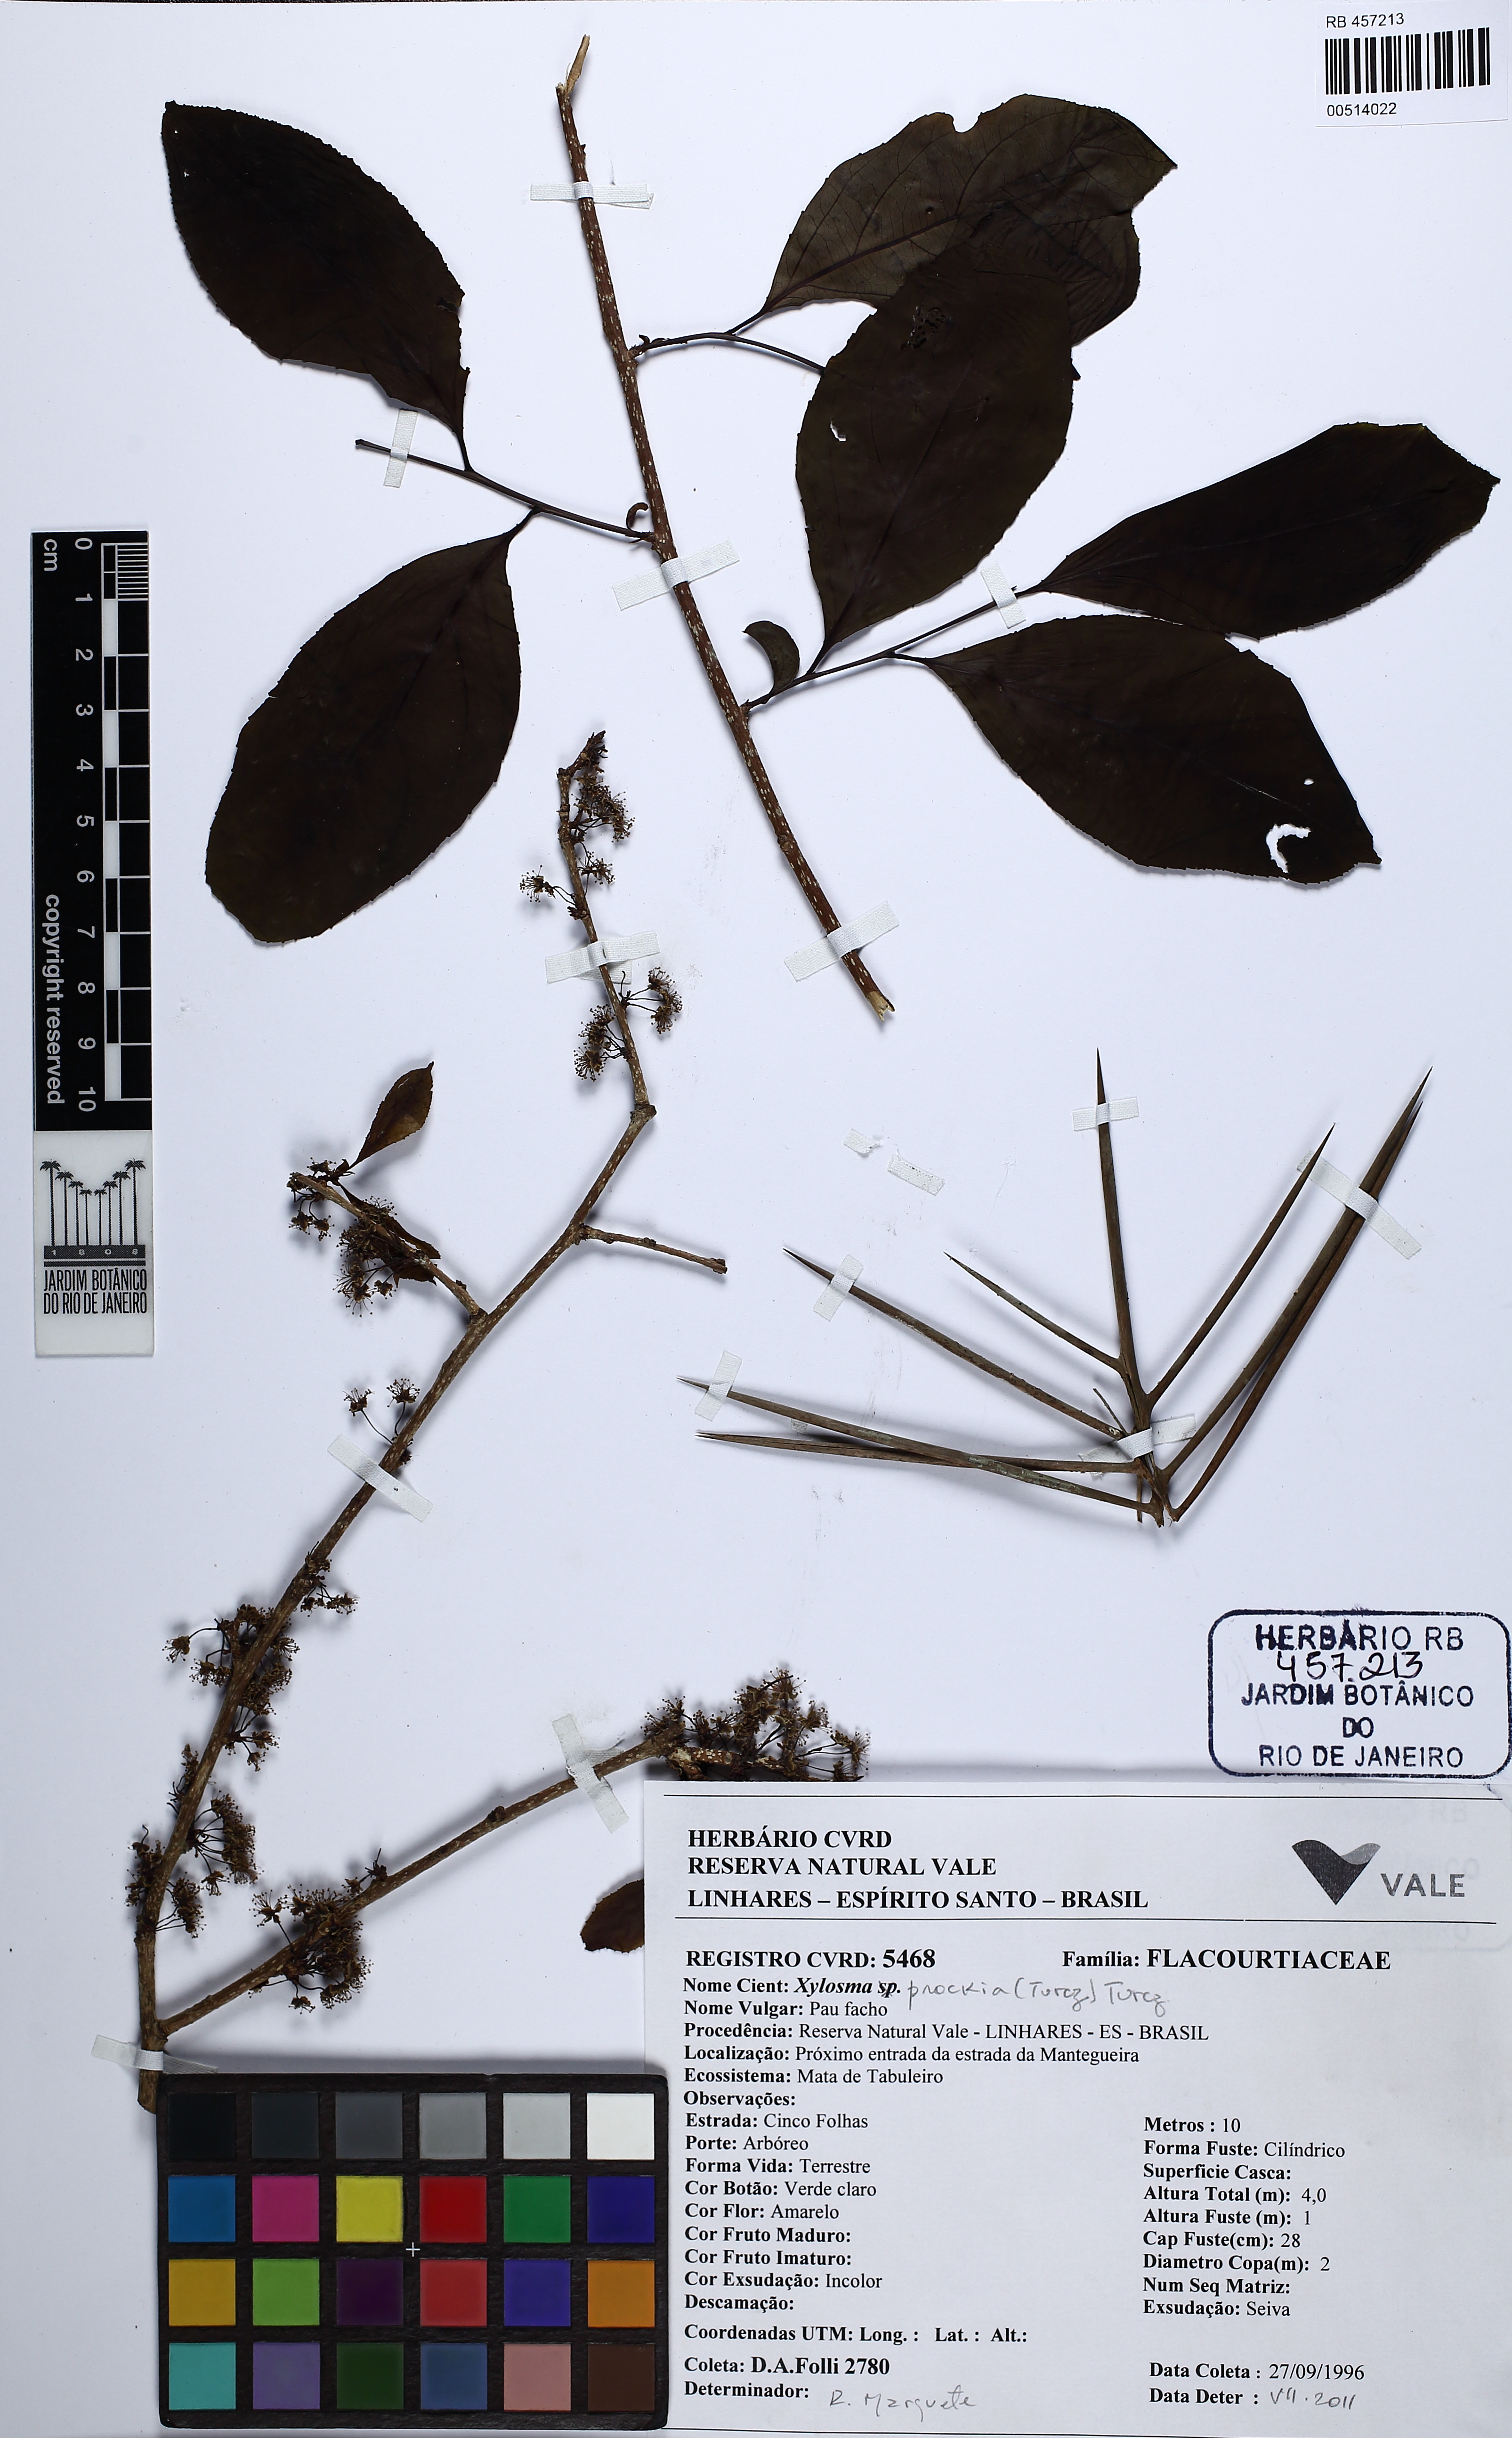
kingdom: Plantae
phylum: Tracheophyta
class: Magnoliopsida
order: Malpighiales
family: Salicaceae
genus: Xylosma
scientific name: Xylosma prockia
